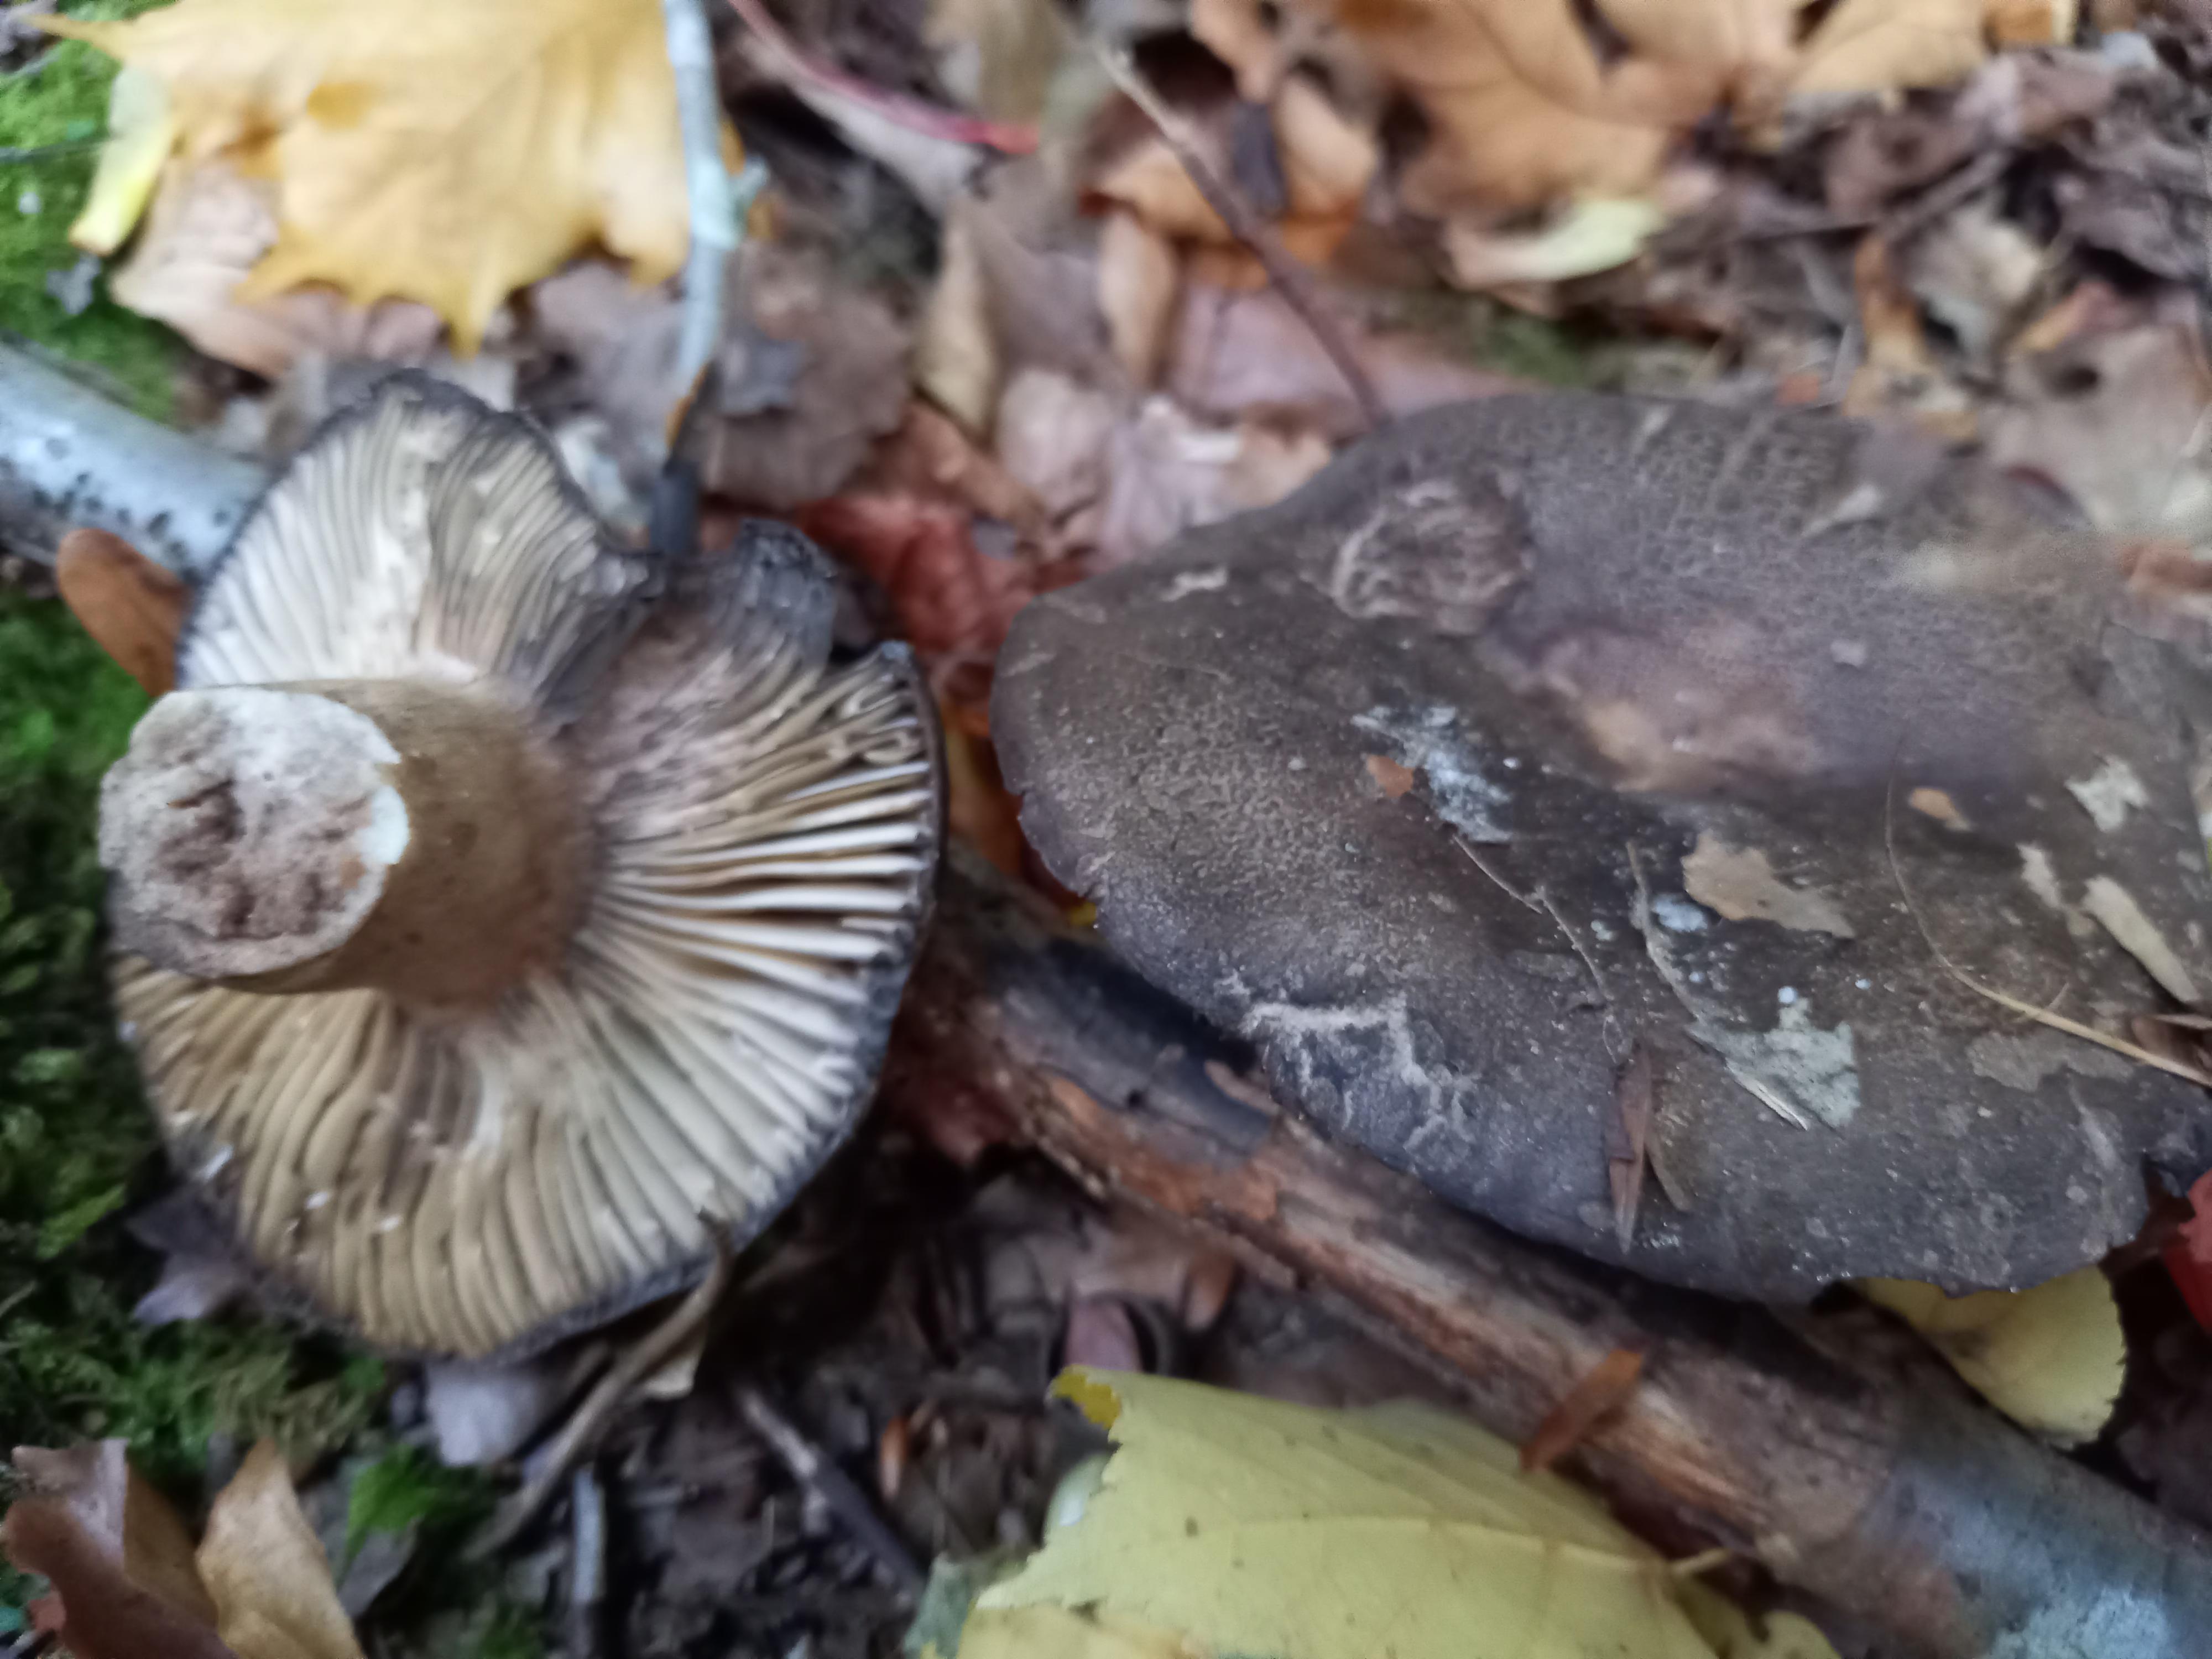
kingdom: Fungi
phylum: Basidiomycota
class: Agaricomycetes
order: Russulales
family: Russulaceae
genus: Russula
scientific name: Russula adusta
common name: sværtende skørhat
